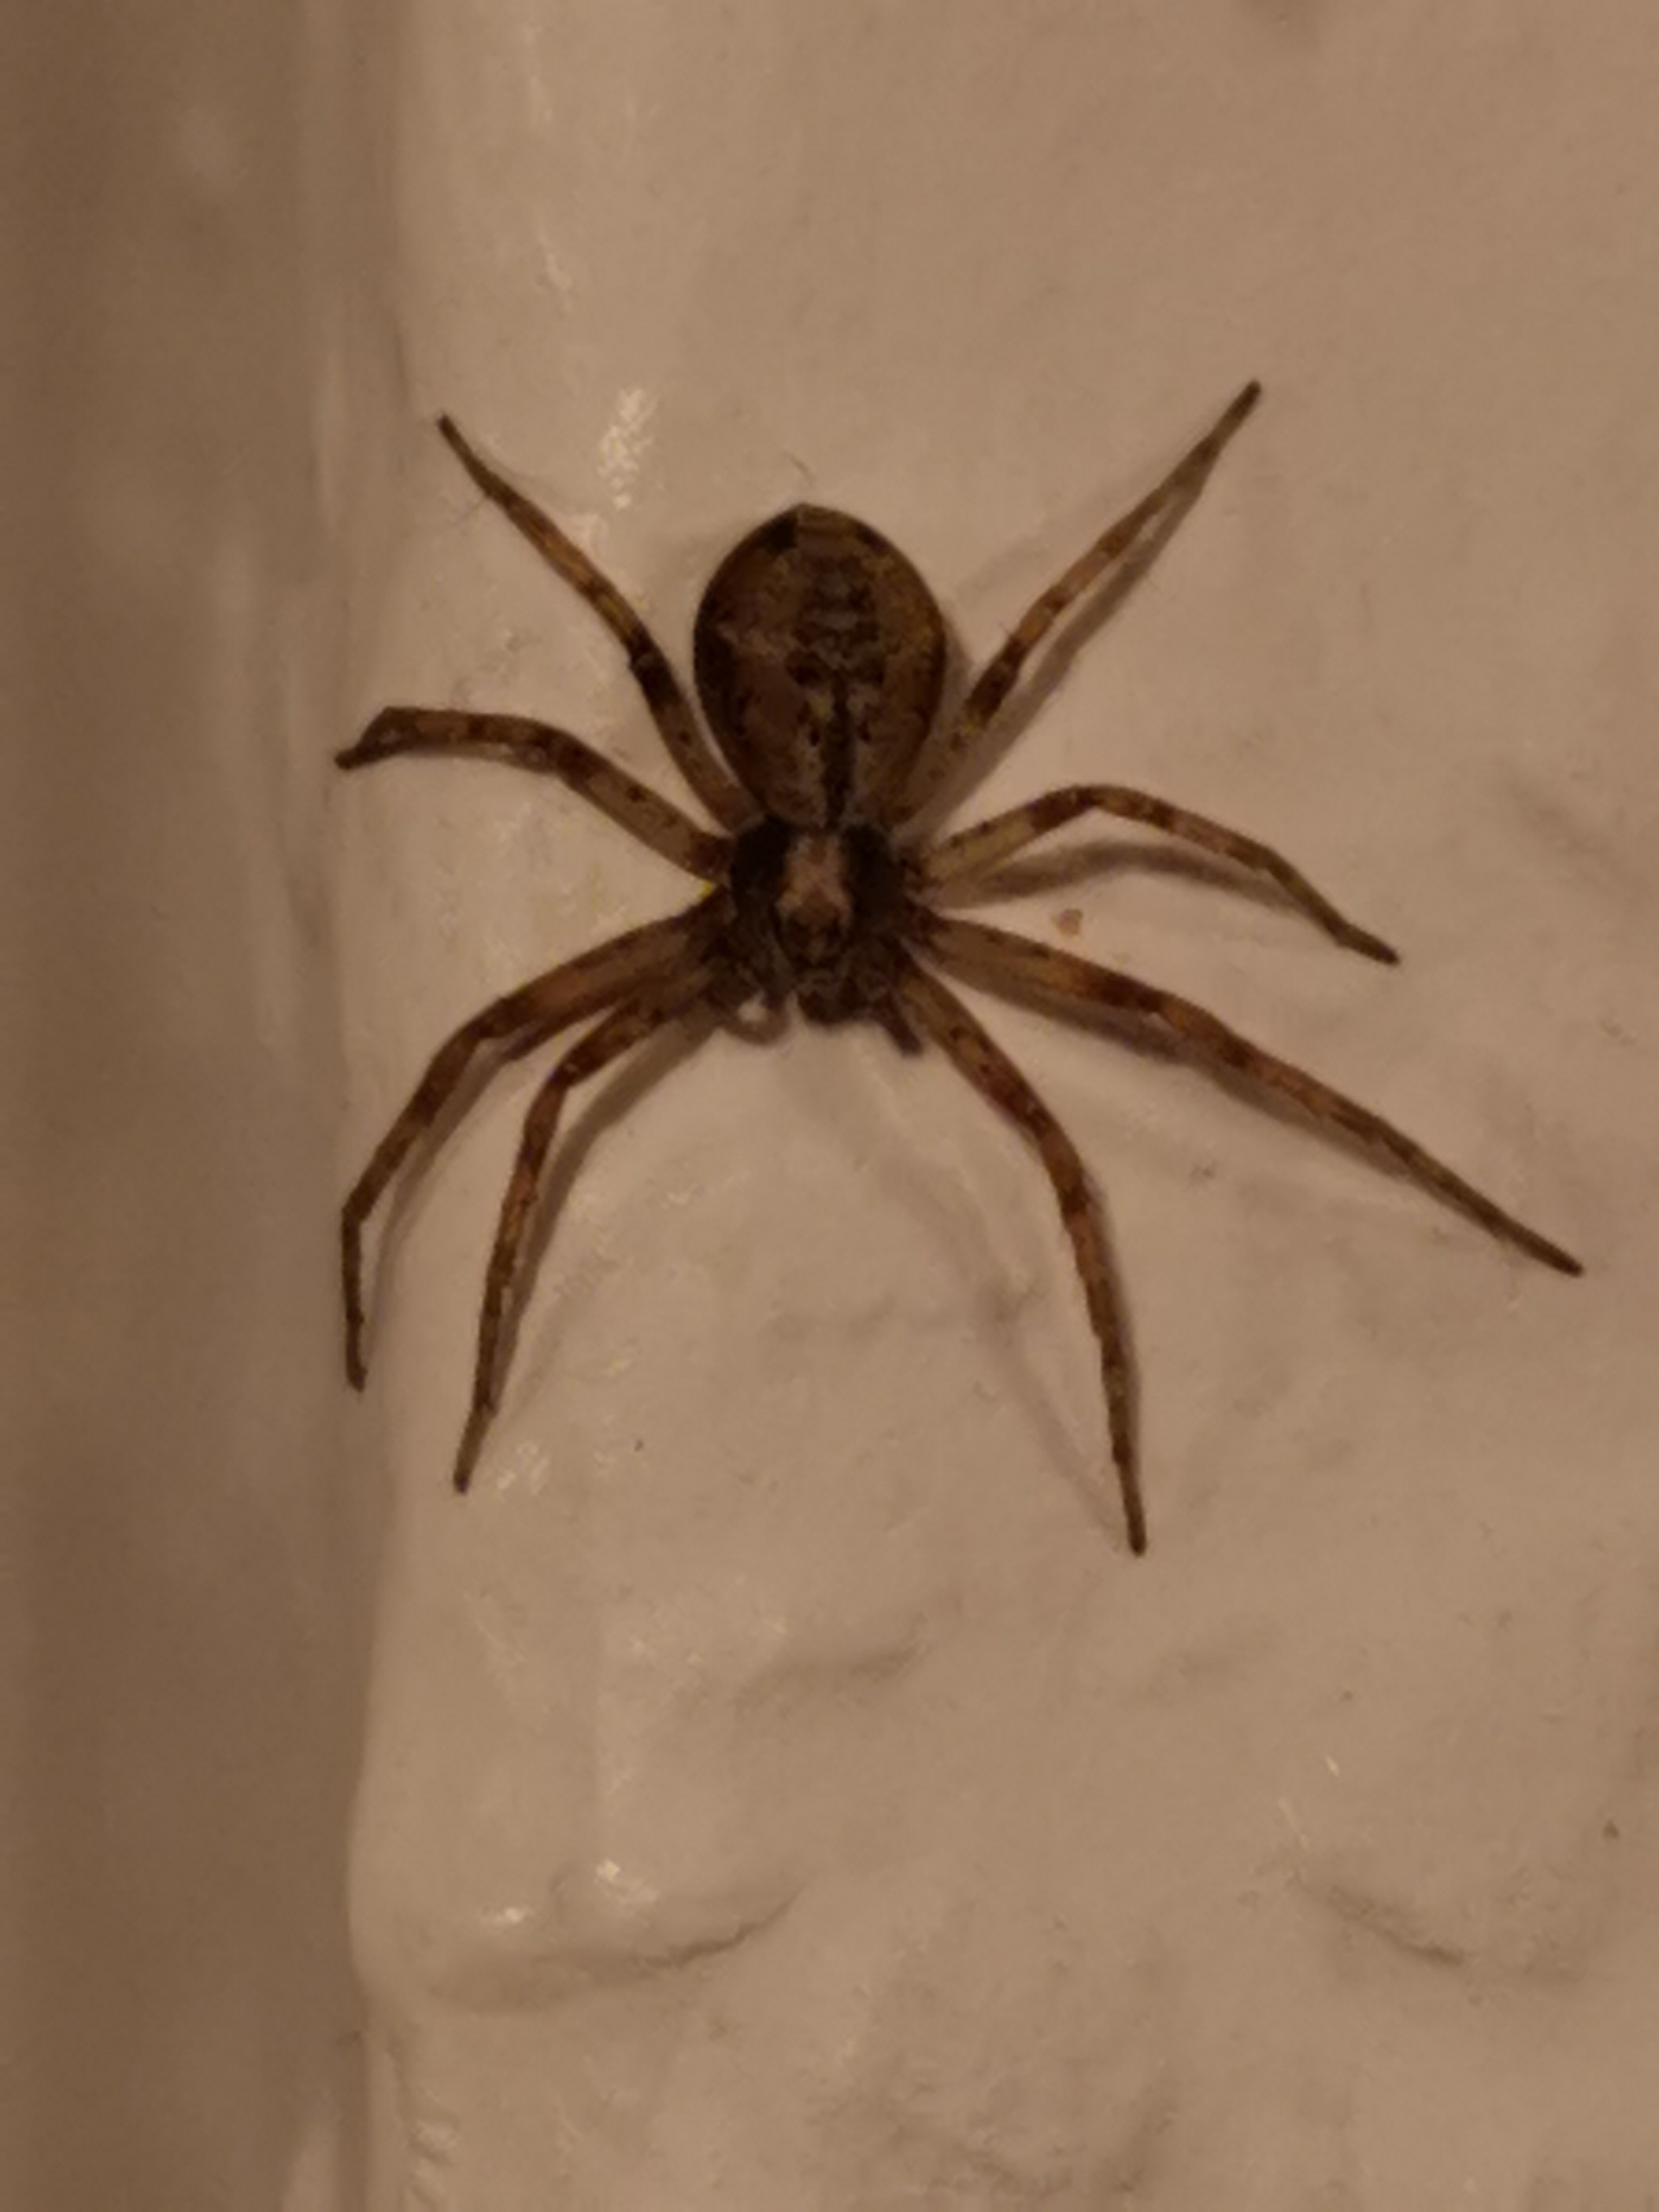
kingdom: Animalia
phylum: Arthropoda
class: Arachnida
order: Araneae
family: Philodromidae
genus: Philodromus
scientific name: Philodromus
